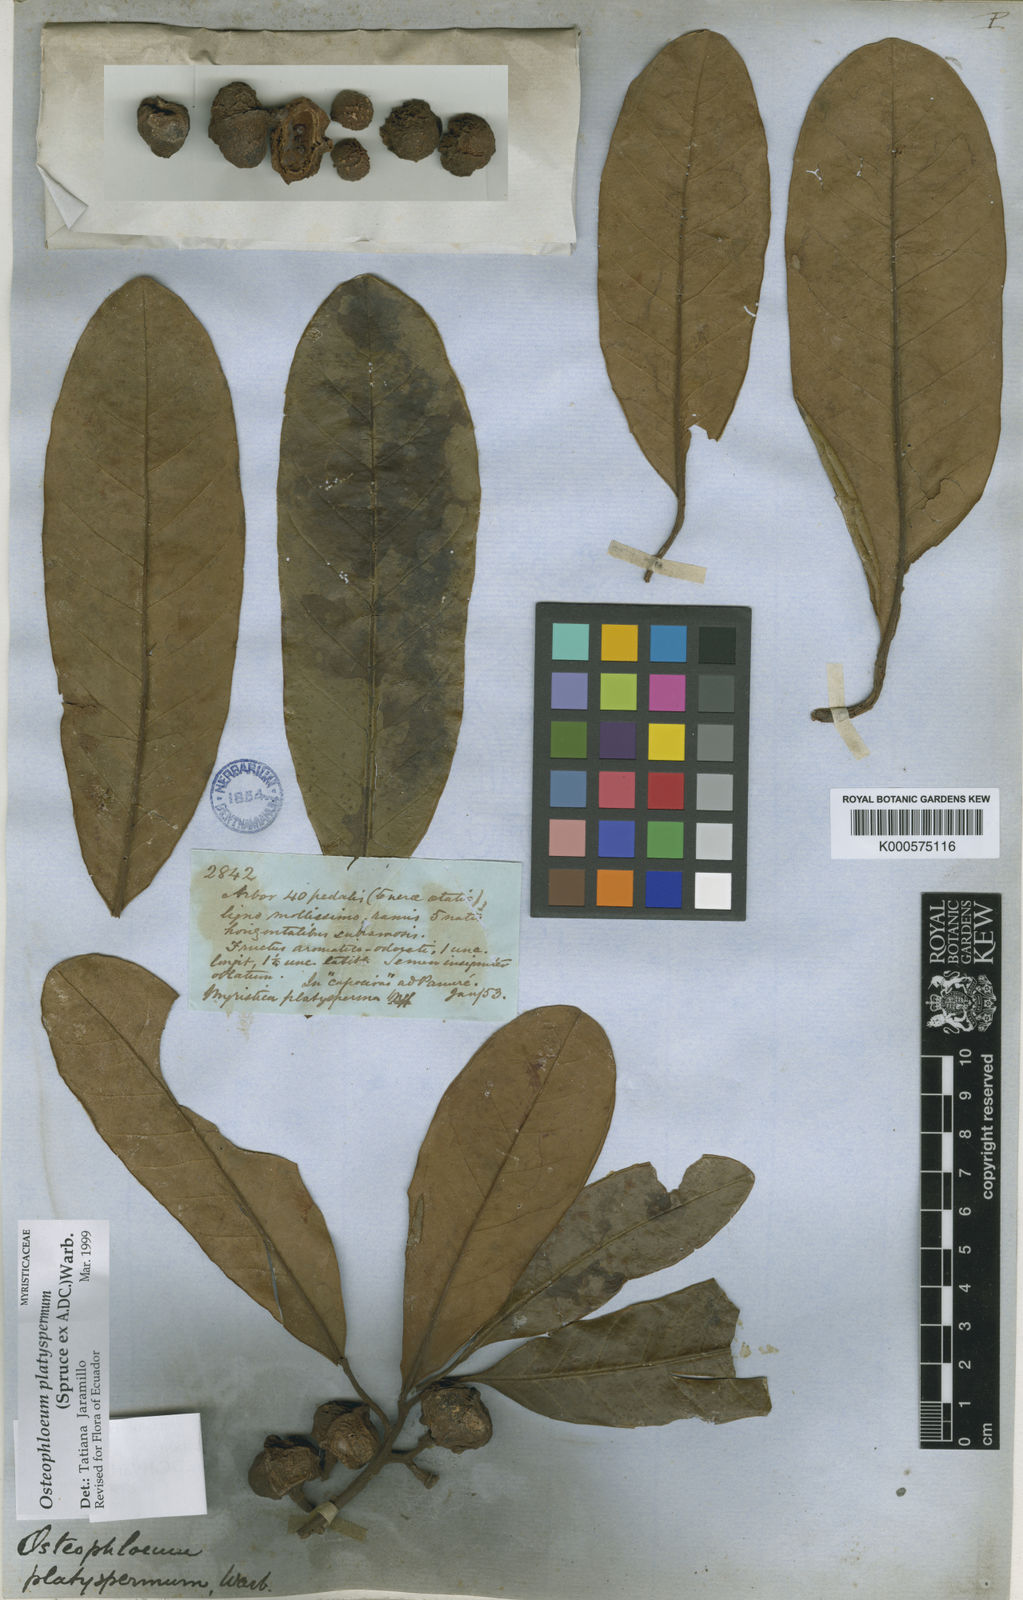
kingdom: Plantae
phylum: Tracheophyta
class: Magnoliopsida
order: Magnoliales
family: Myristicaceae
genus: Osteophloeum
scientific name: Osteophloeum platyspermum
